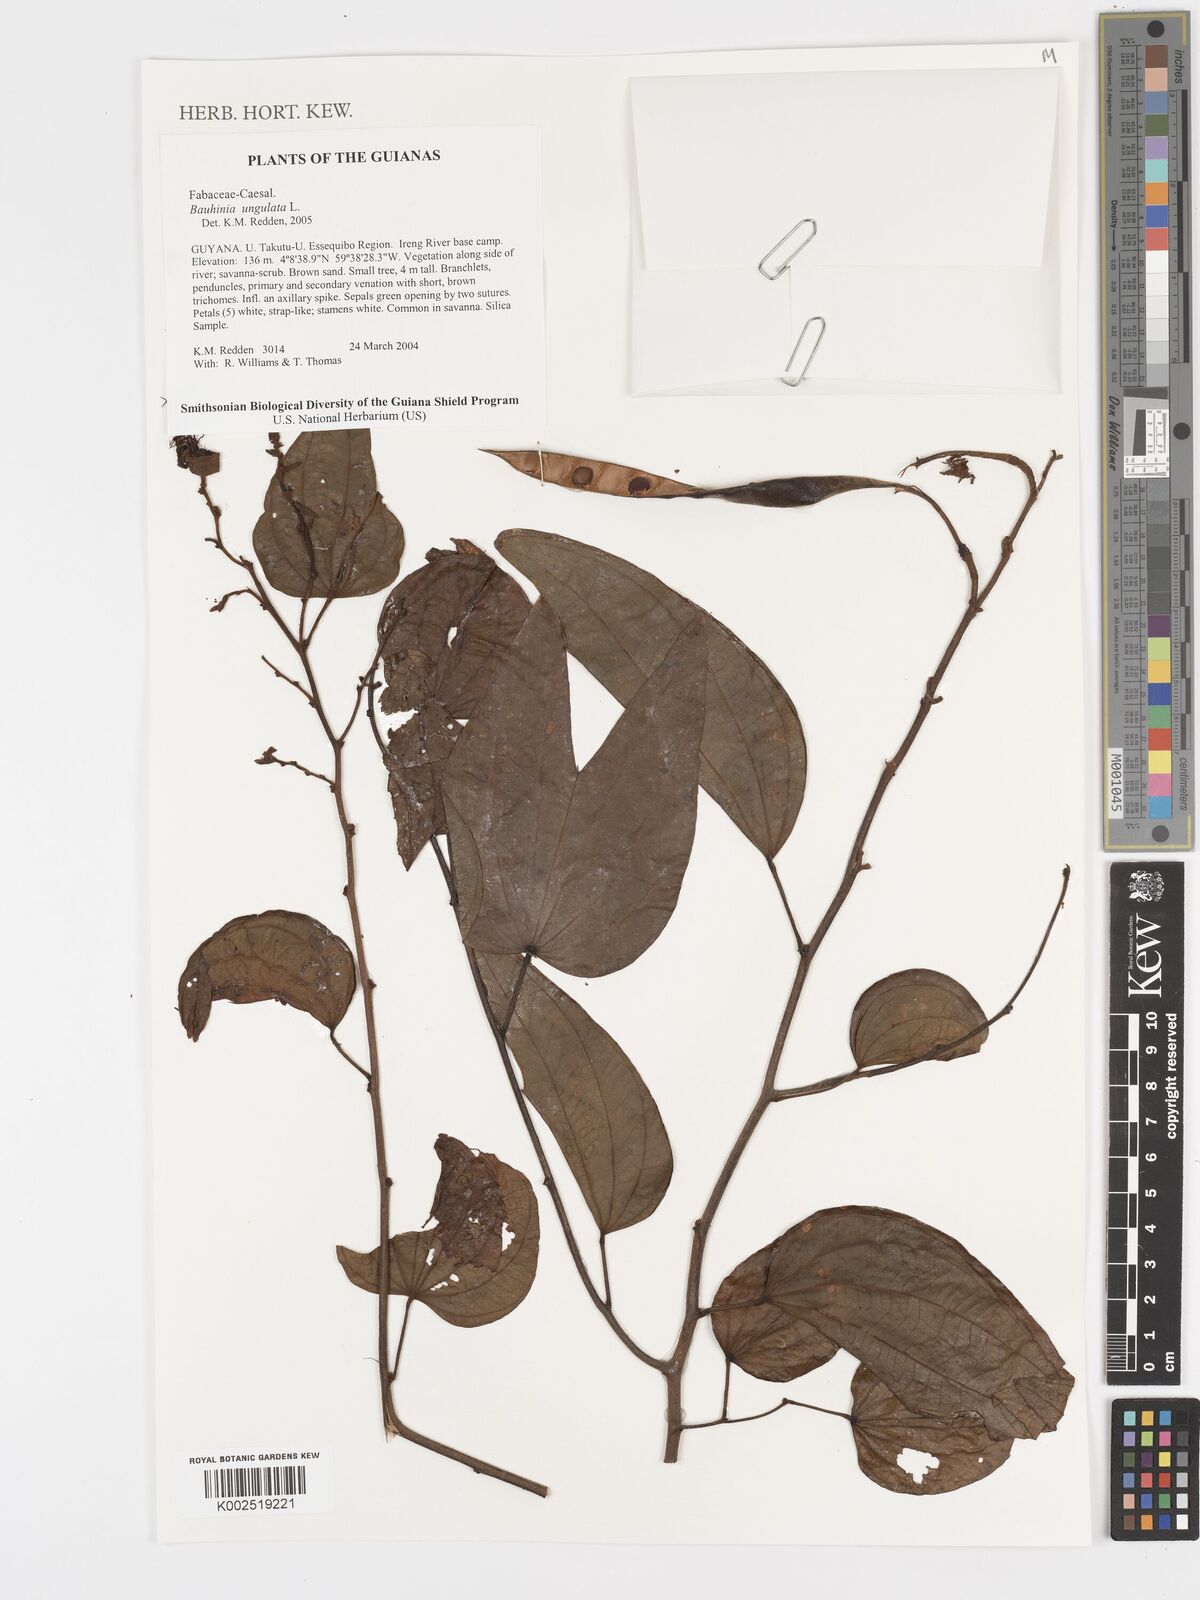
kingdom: Plantae
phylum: Tracheophyta
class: Magnoliopsida
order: Fabales
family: Fabaceae
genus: Bauhinia
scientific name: Bauhinia ungulata
